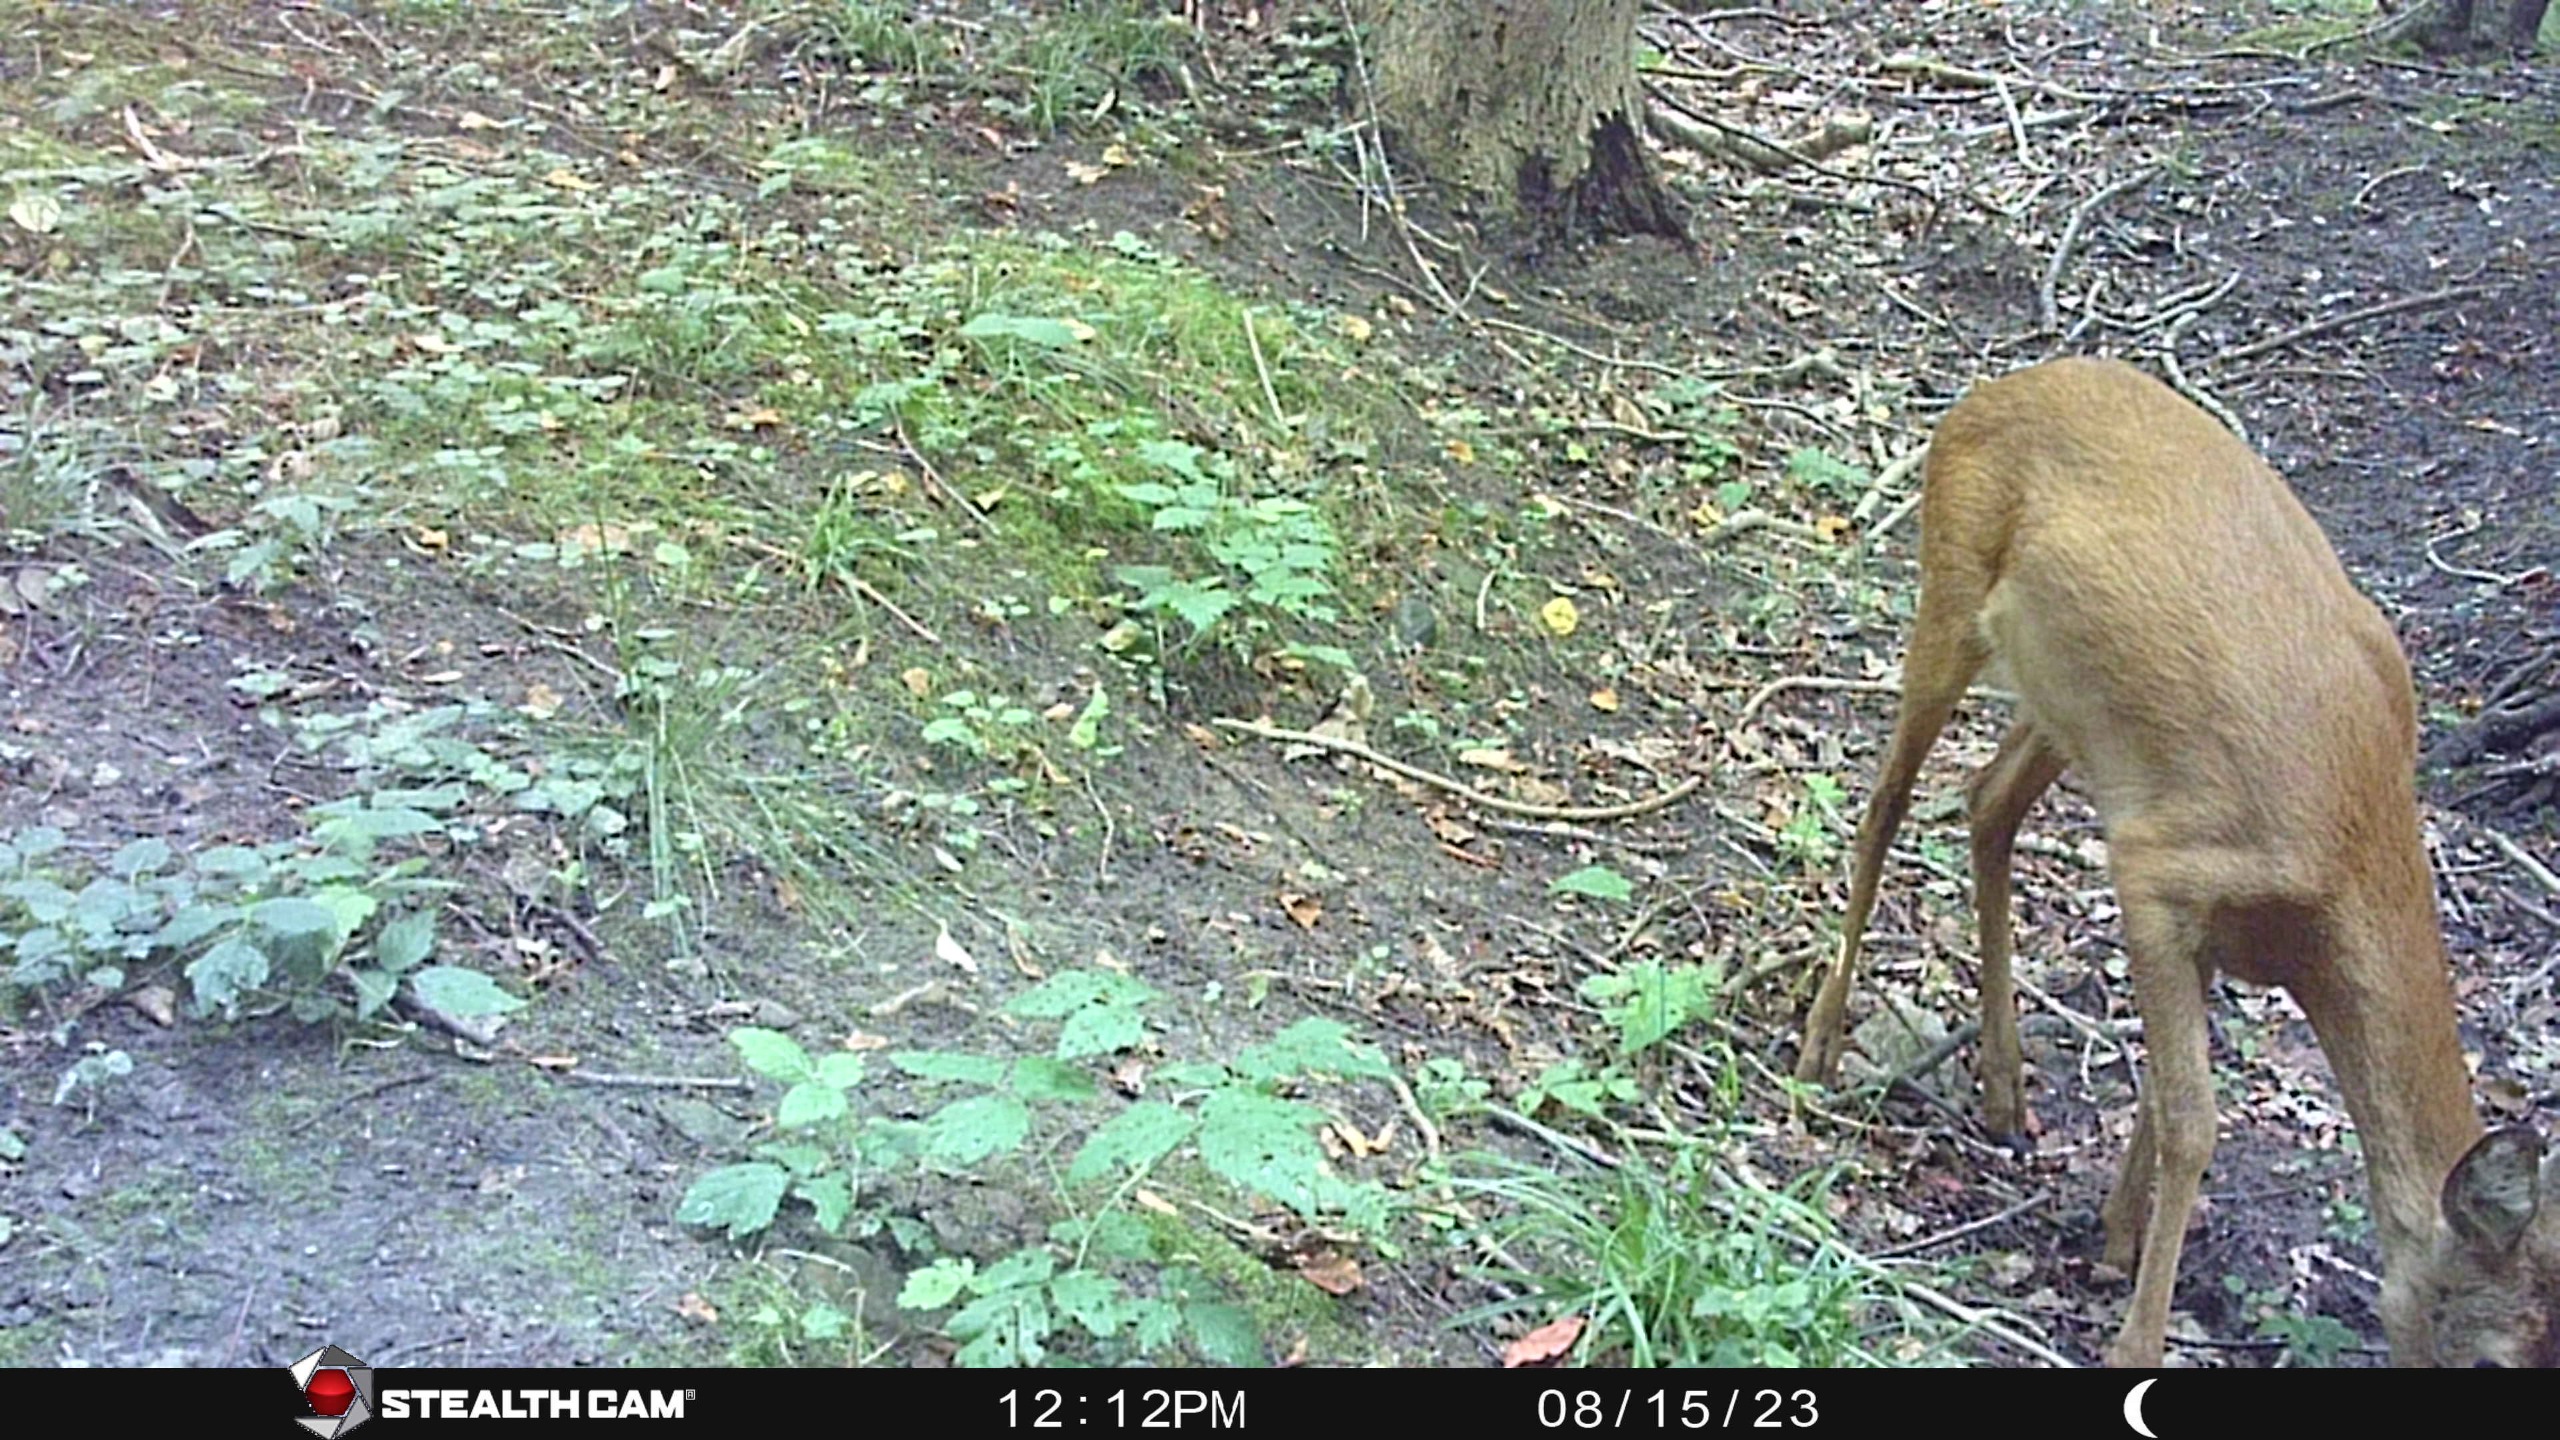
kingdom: Animalia
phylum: Chordata
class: Mammalia
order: Artiodactyla
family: Cervidae
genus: Capreolus
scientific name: Capreolus capreolus
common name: Rådyr
